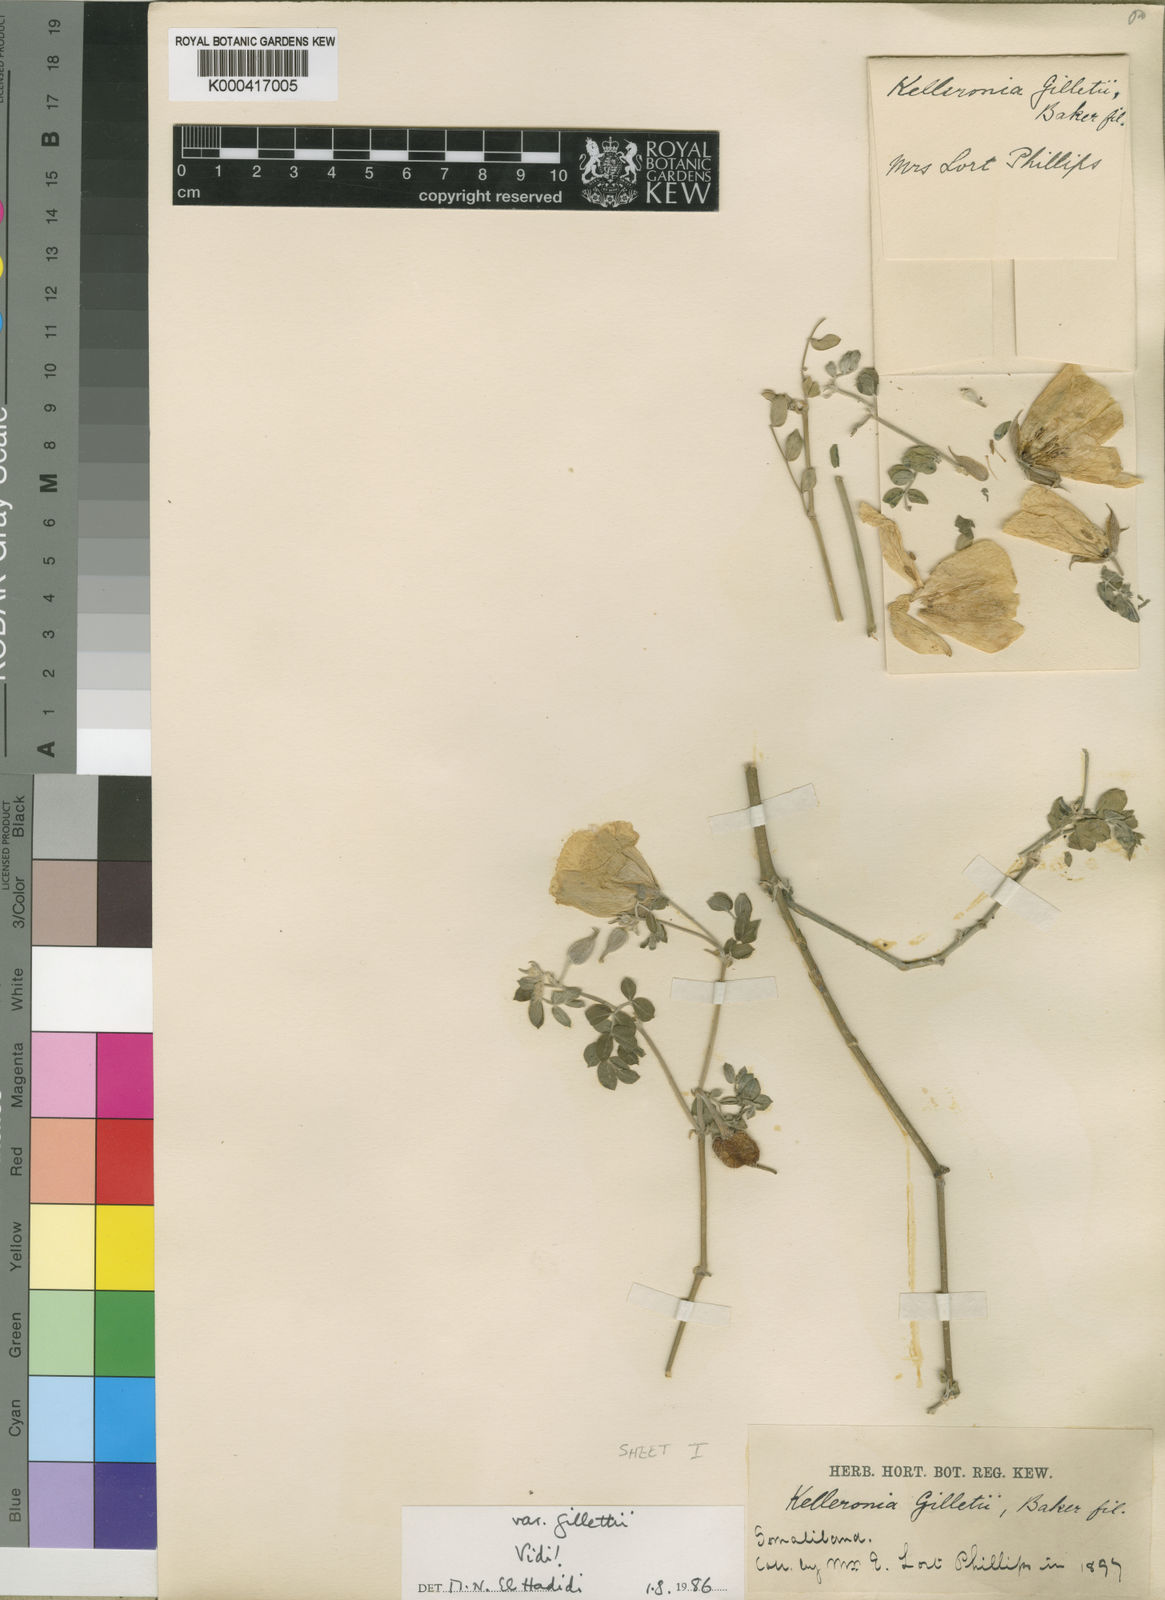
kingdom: Plantae
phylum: Tracheophyta
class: Magnoliopsida
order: Zygophyllales
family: Zygophyllaceae
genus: Kelleronia
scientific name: Kelleronia gillettiae
